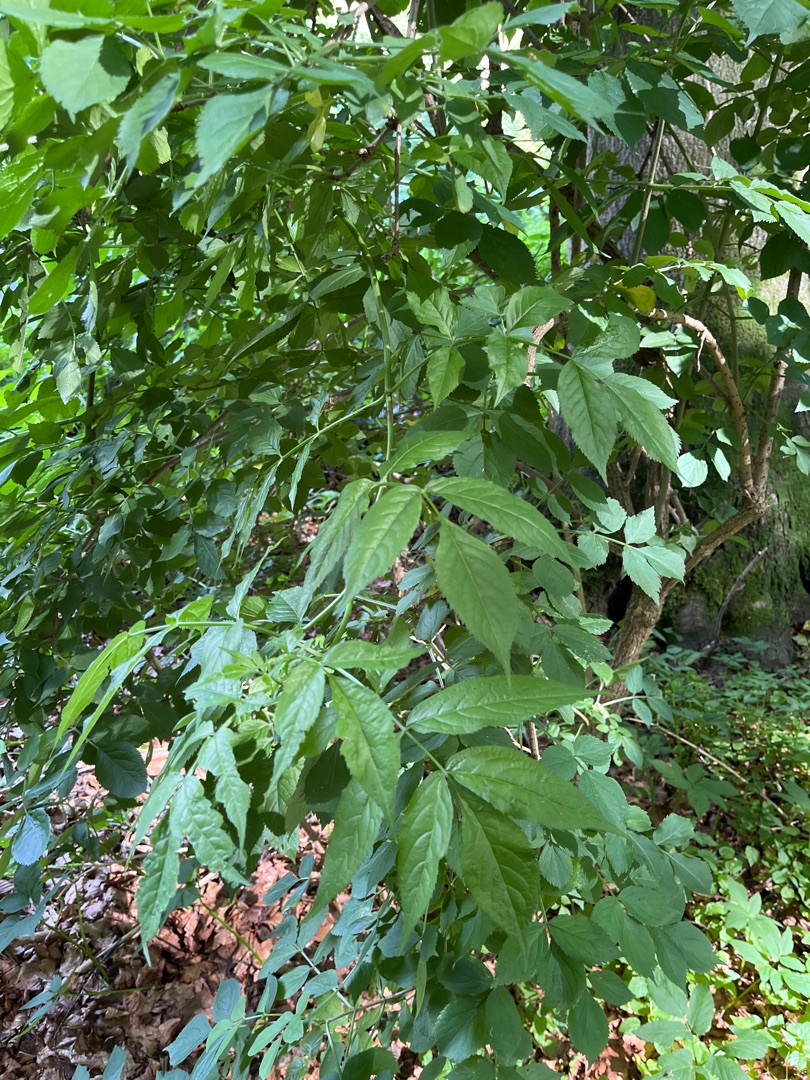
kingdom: Plantae
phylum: Tracheophyta
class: Magnoliopsida
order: Dipsacales
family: Viburnaceae
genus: Sambucus
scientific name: Sambucus nigra
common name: Almindelig hyld
